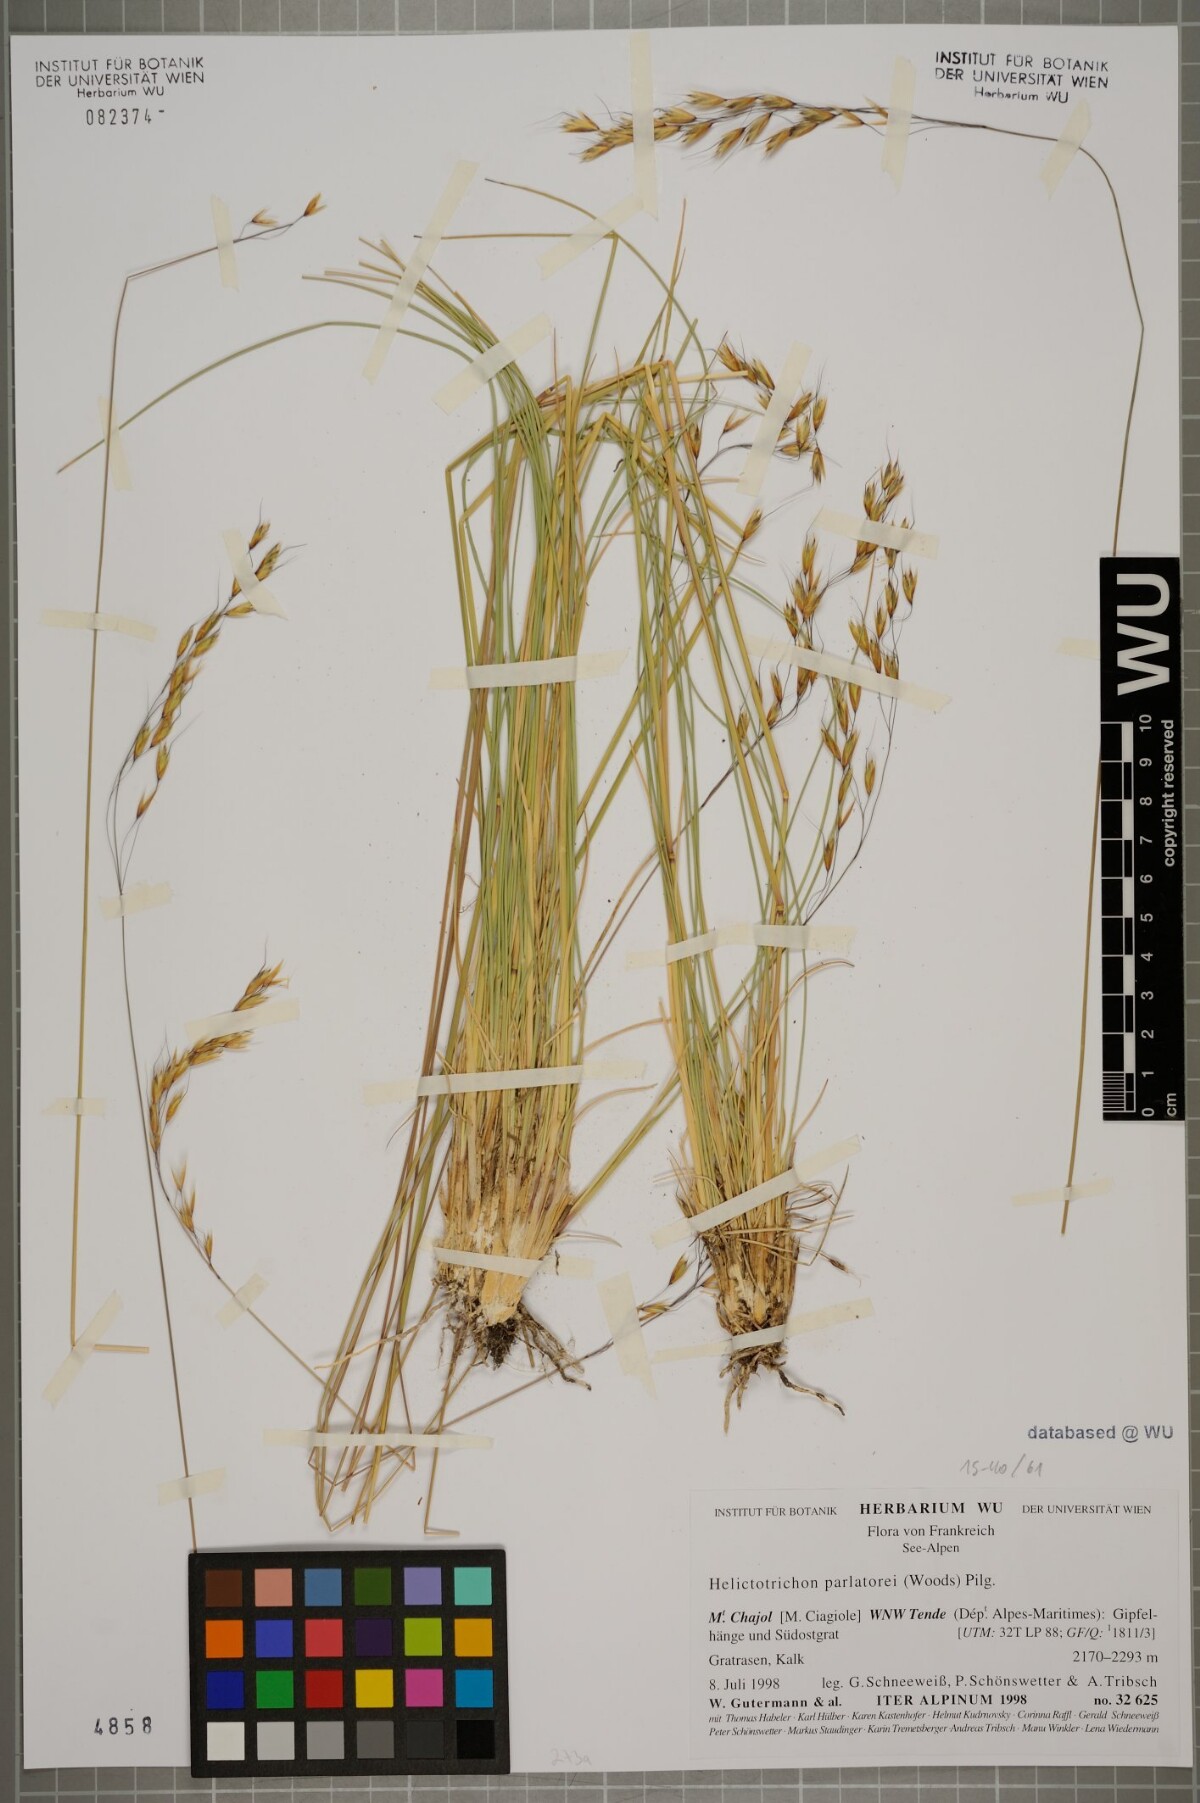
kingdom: Plantae
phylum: Tracheophyta
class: Liliopsida
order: Poales
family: Poaceae
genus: Helictotrichon
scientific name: Helictotrichon parlatorei
